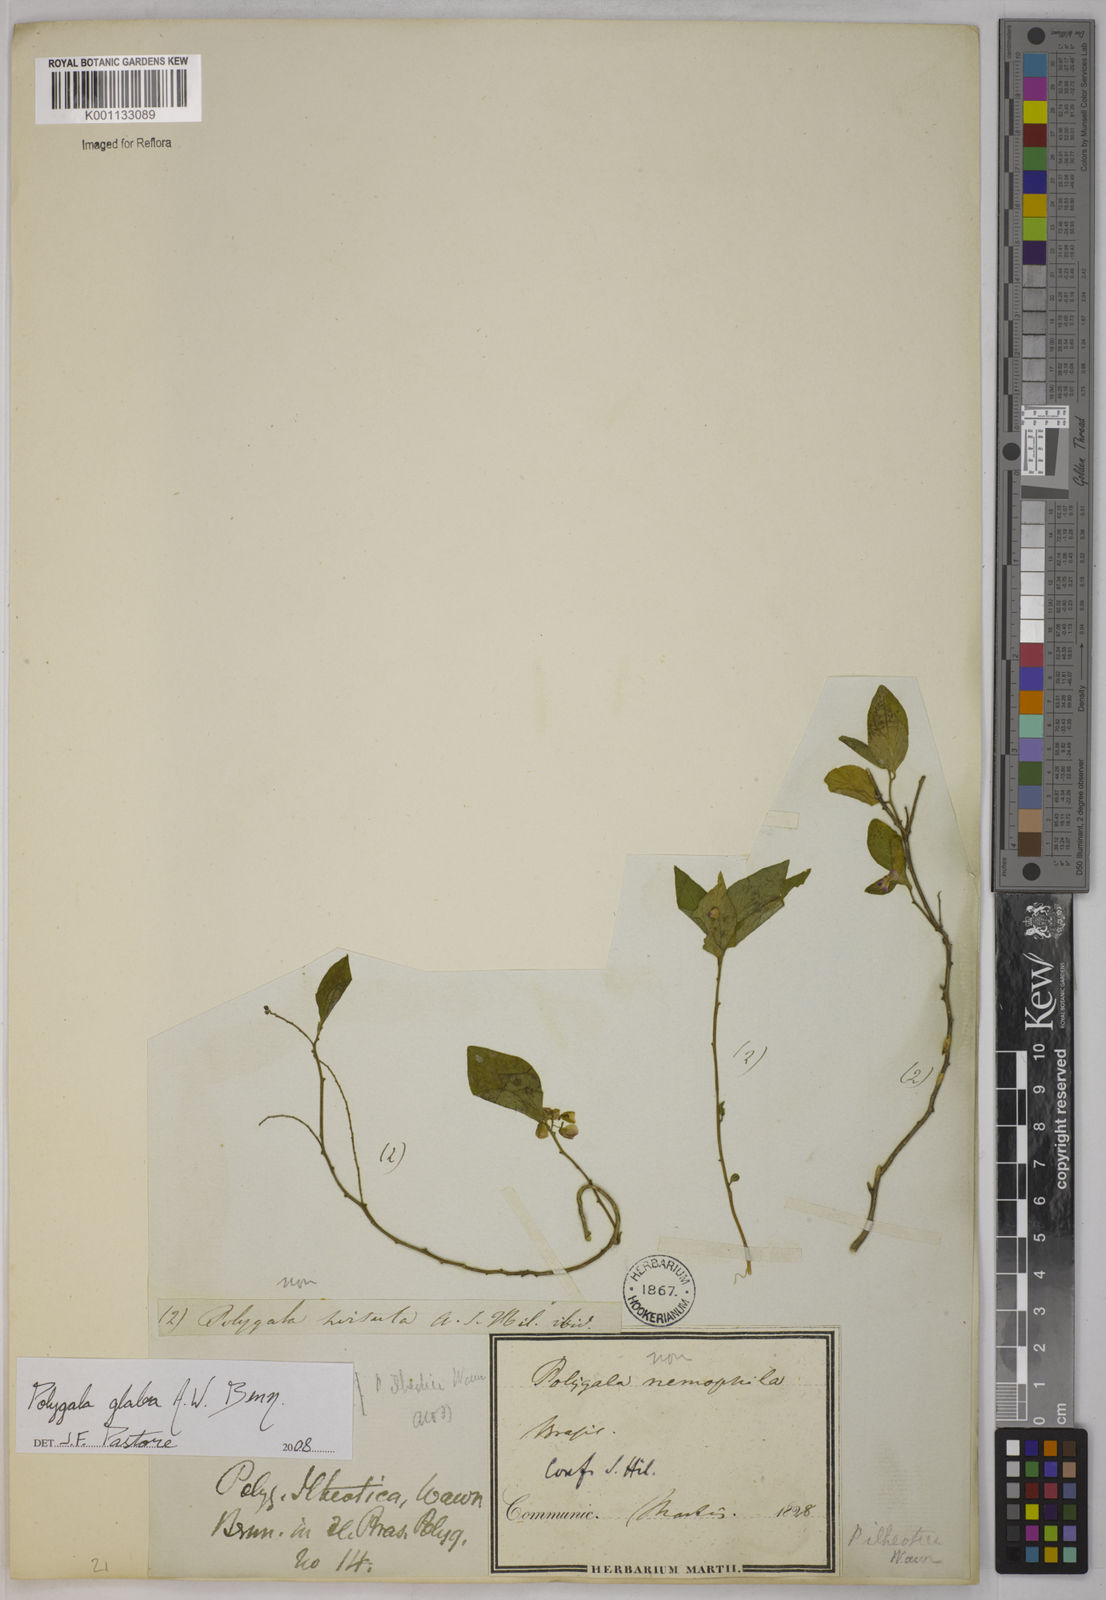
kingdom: Plantae
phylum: Tracheophyta
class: Magnoliopsida
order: Fabales
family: Polygalaceae
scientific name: Polygalaceae
